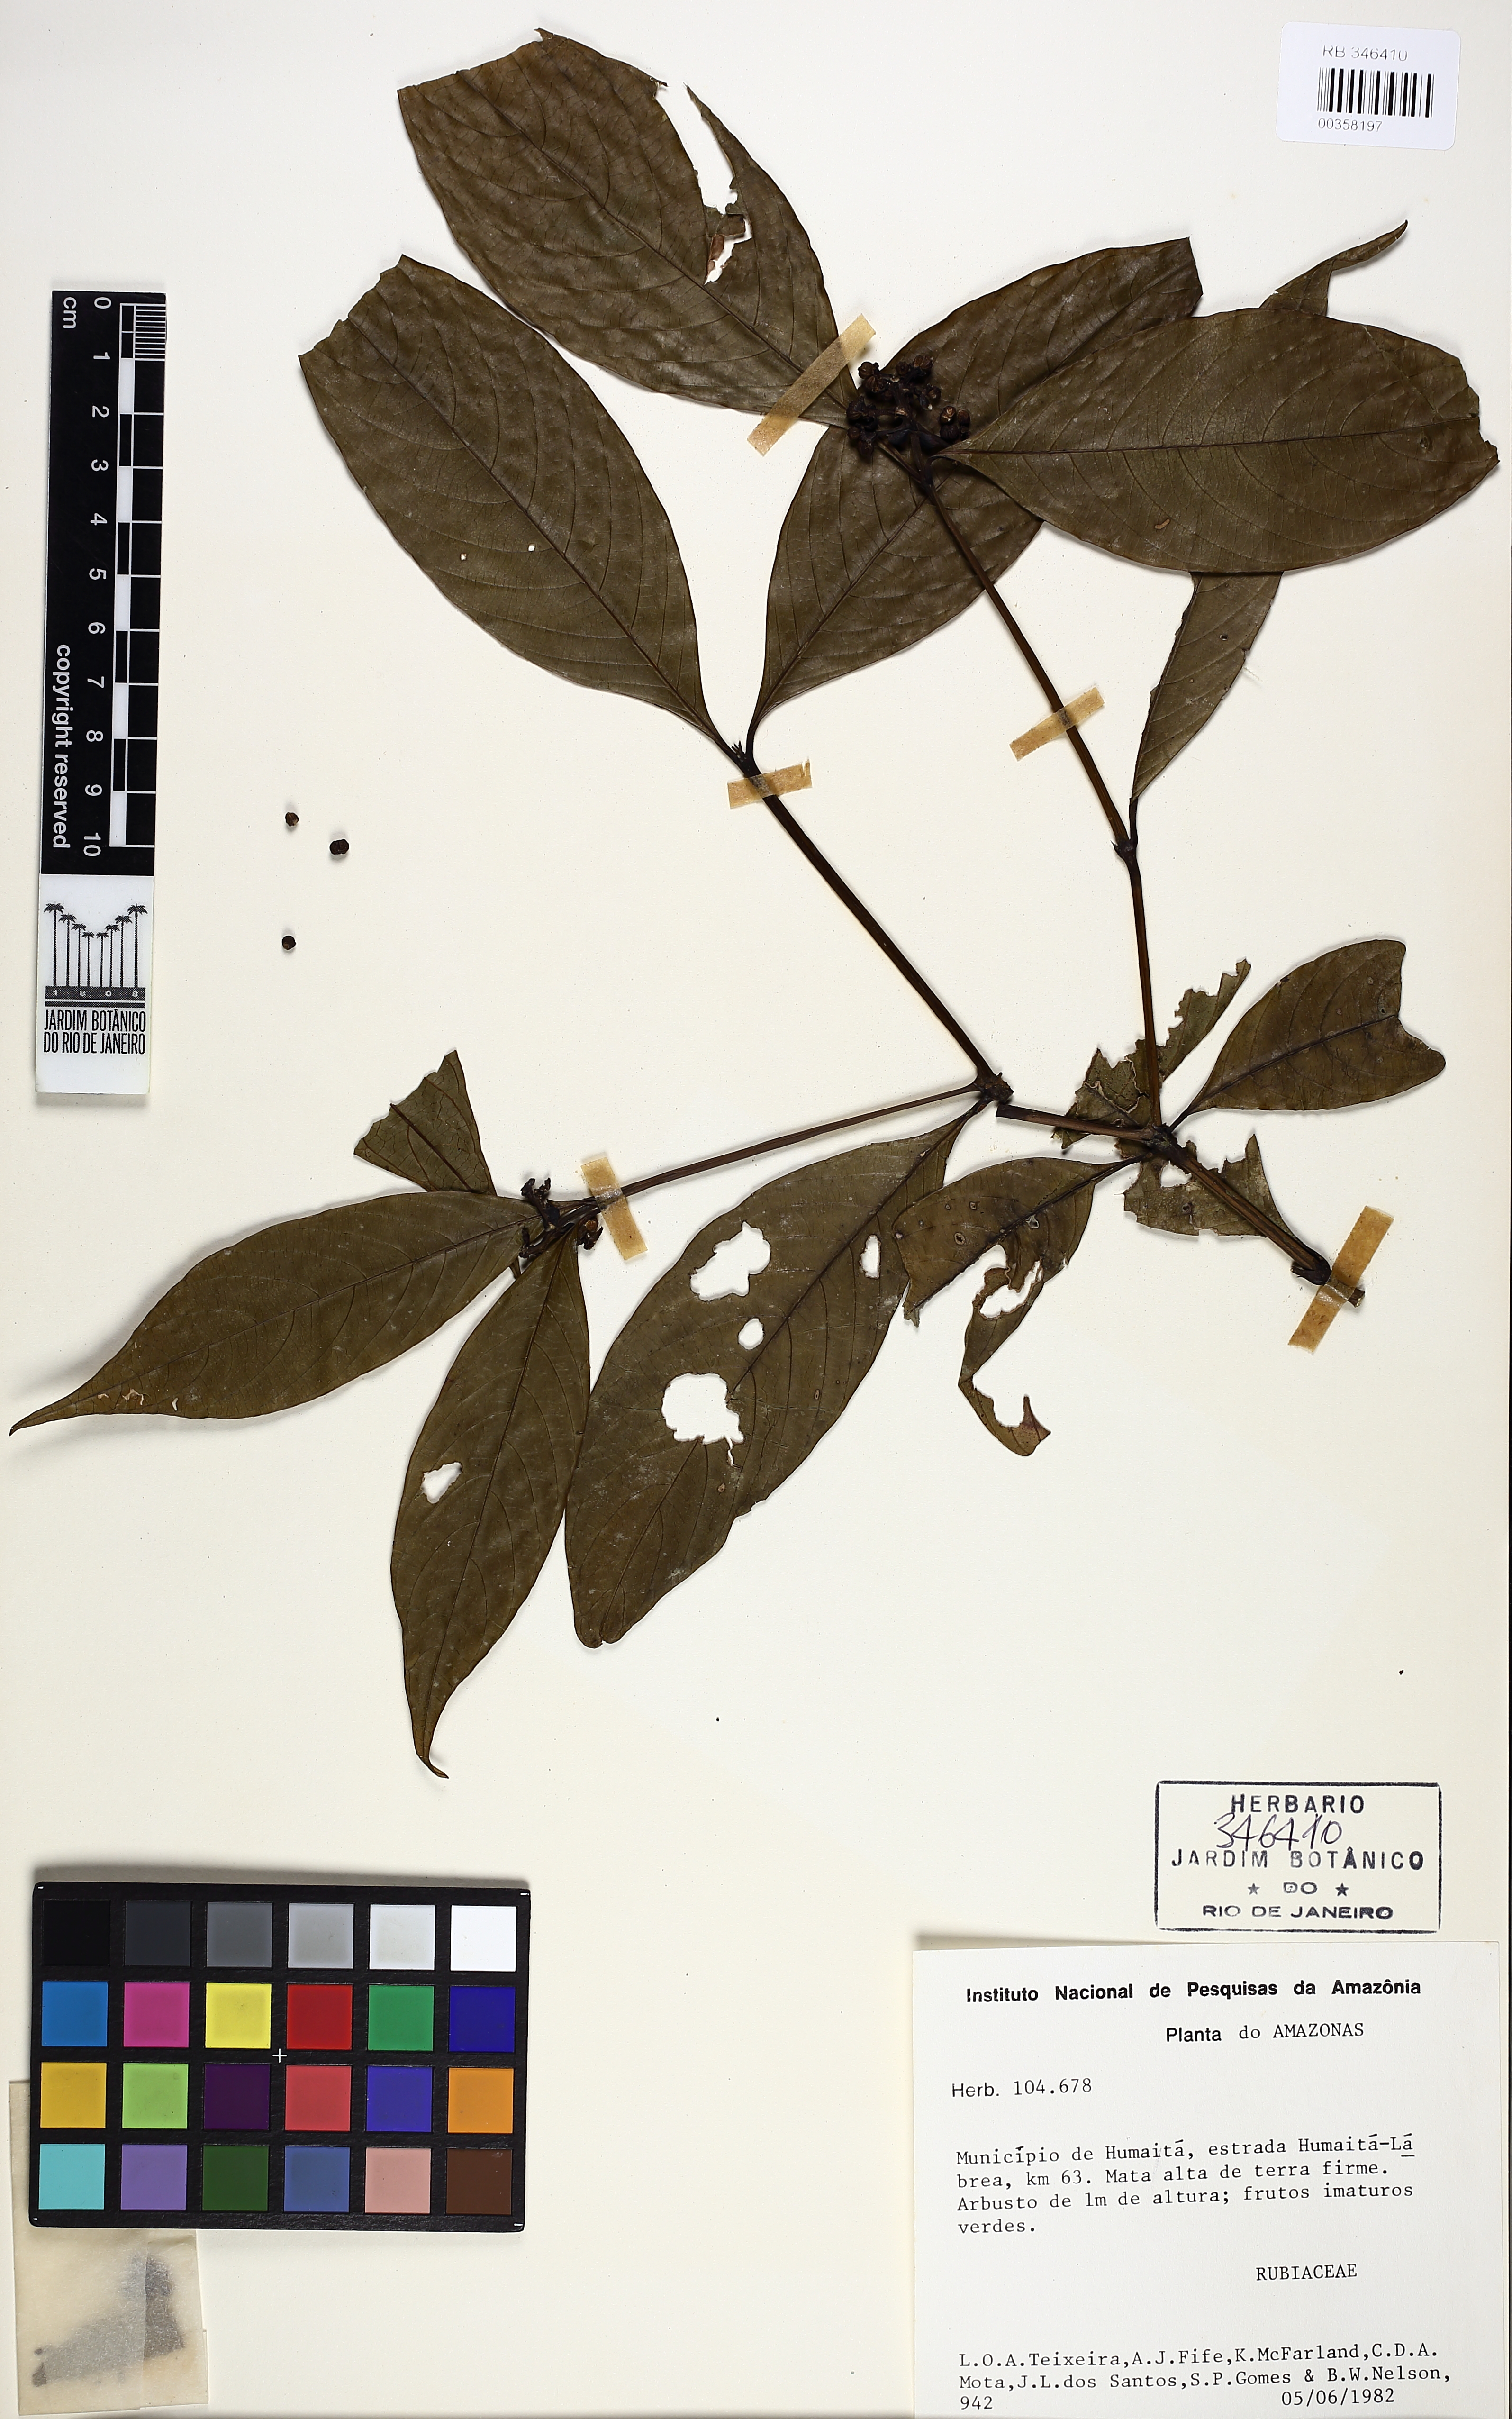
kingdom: Plantae
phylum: Tracheophyta
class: Magnoliopsida
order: Gentianales
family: Rubiaceae
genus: Palicourea
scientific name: Palicourea gracilenta
